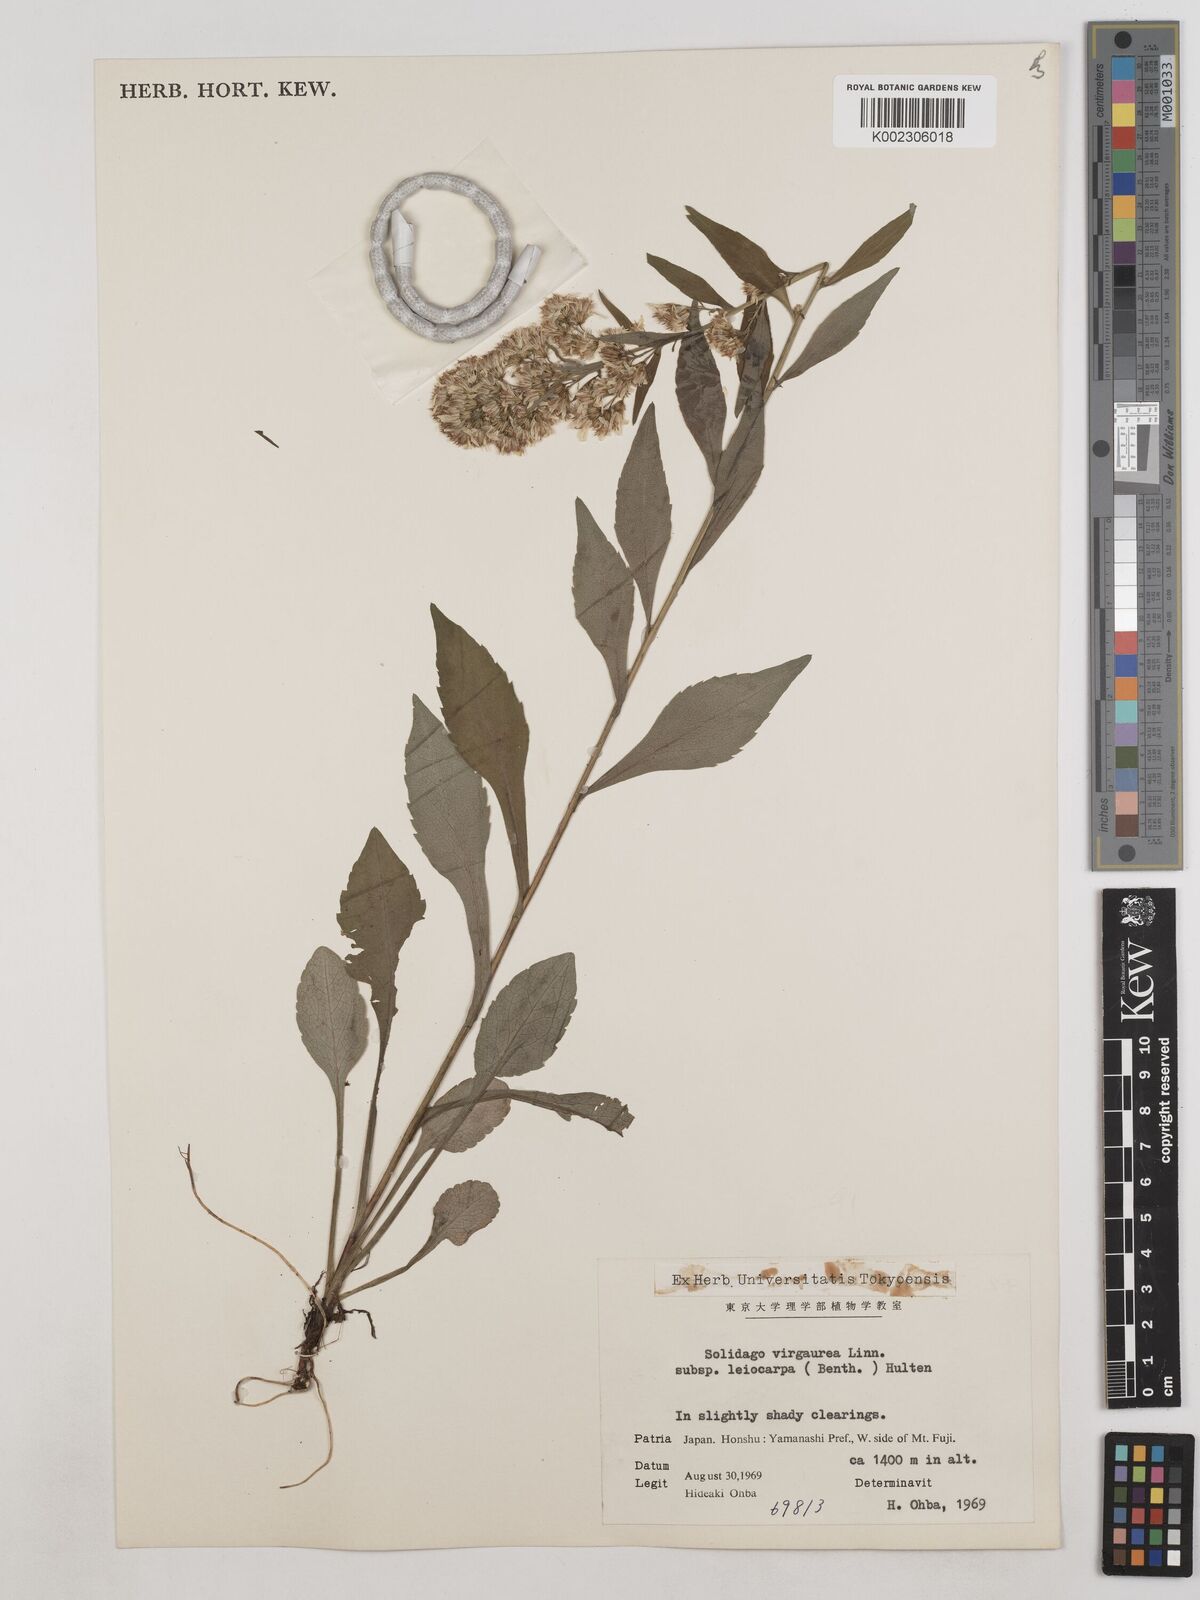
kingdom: Plantae
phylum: Tracheophyta
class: Magnoliopsida
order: Asterales
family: Asteraceae
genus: Solidago
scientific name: Solidago decurrens
